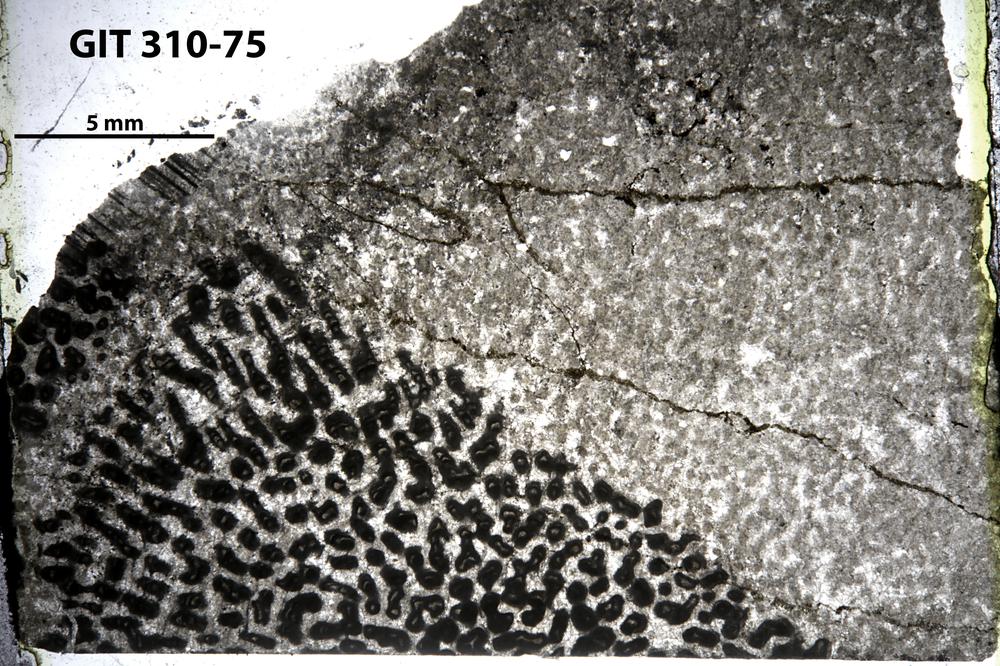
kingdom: Animalia
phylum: Porifera
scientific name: Porifera
